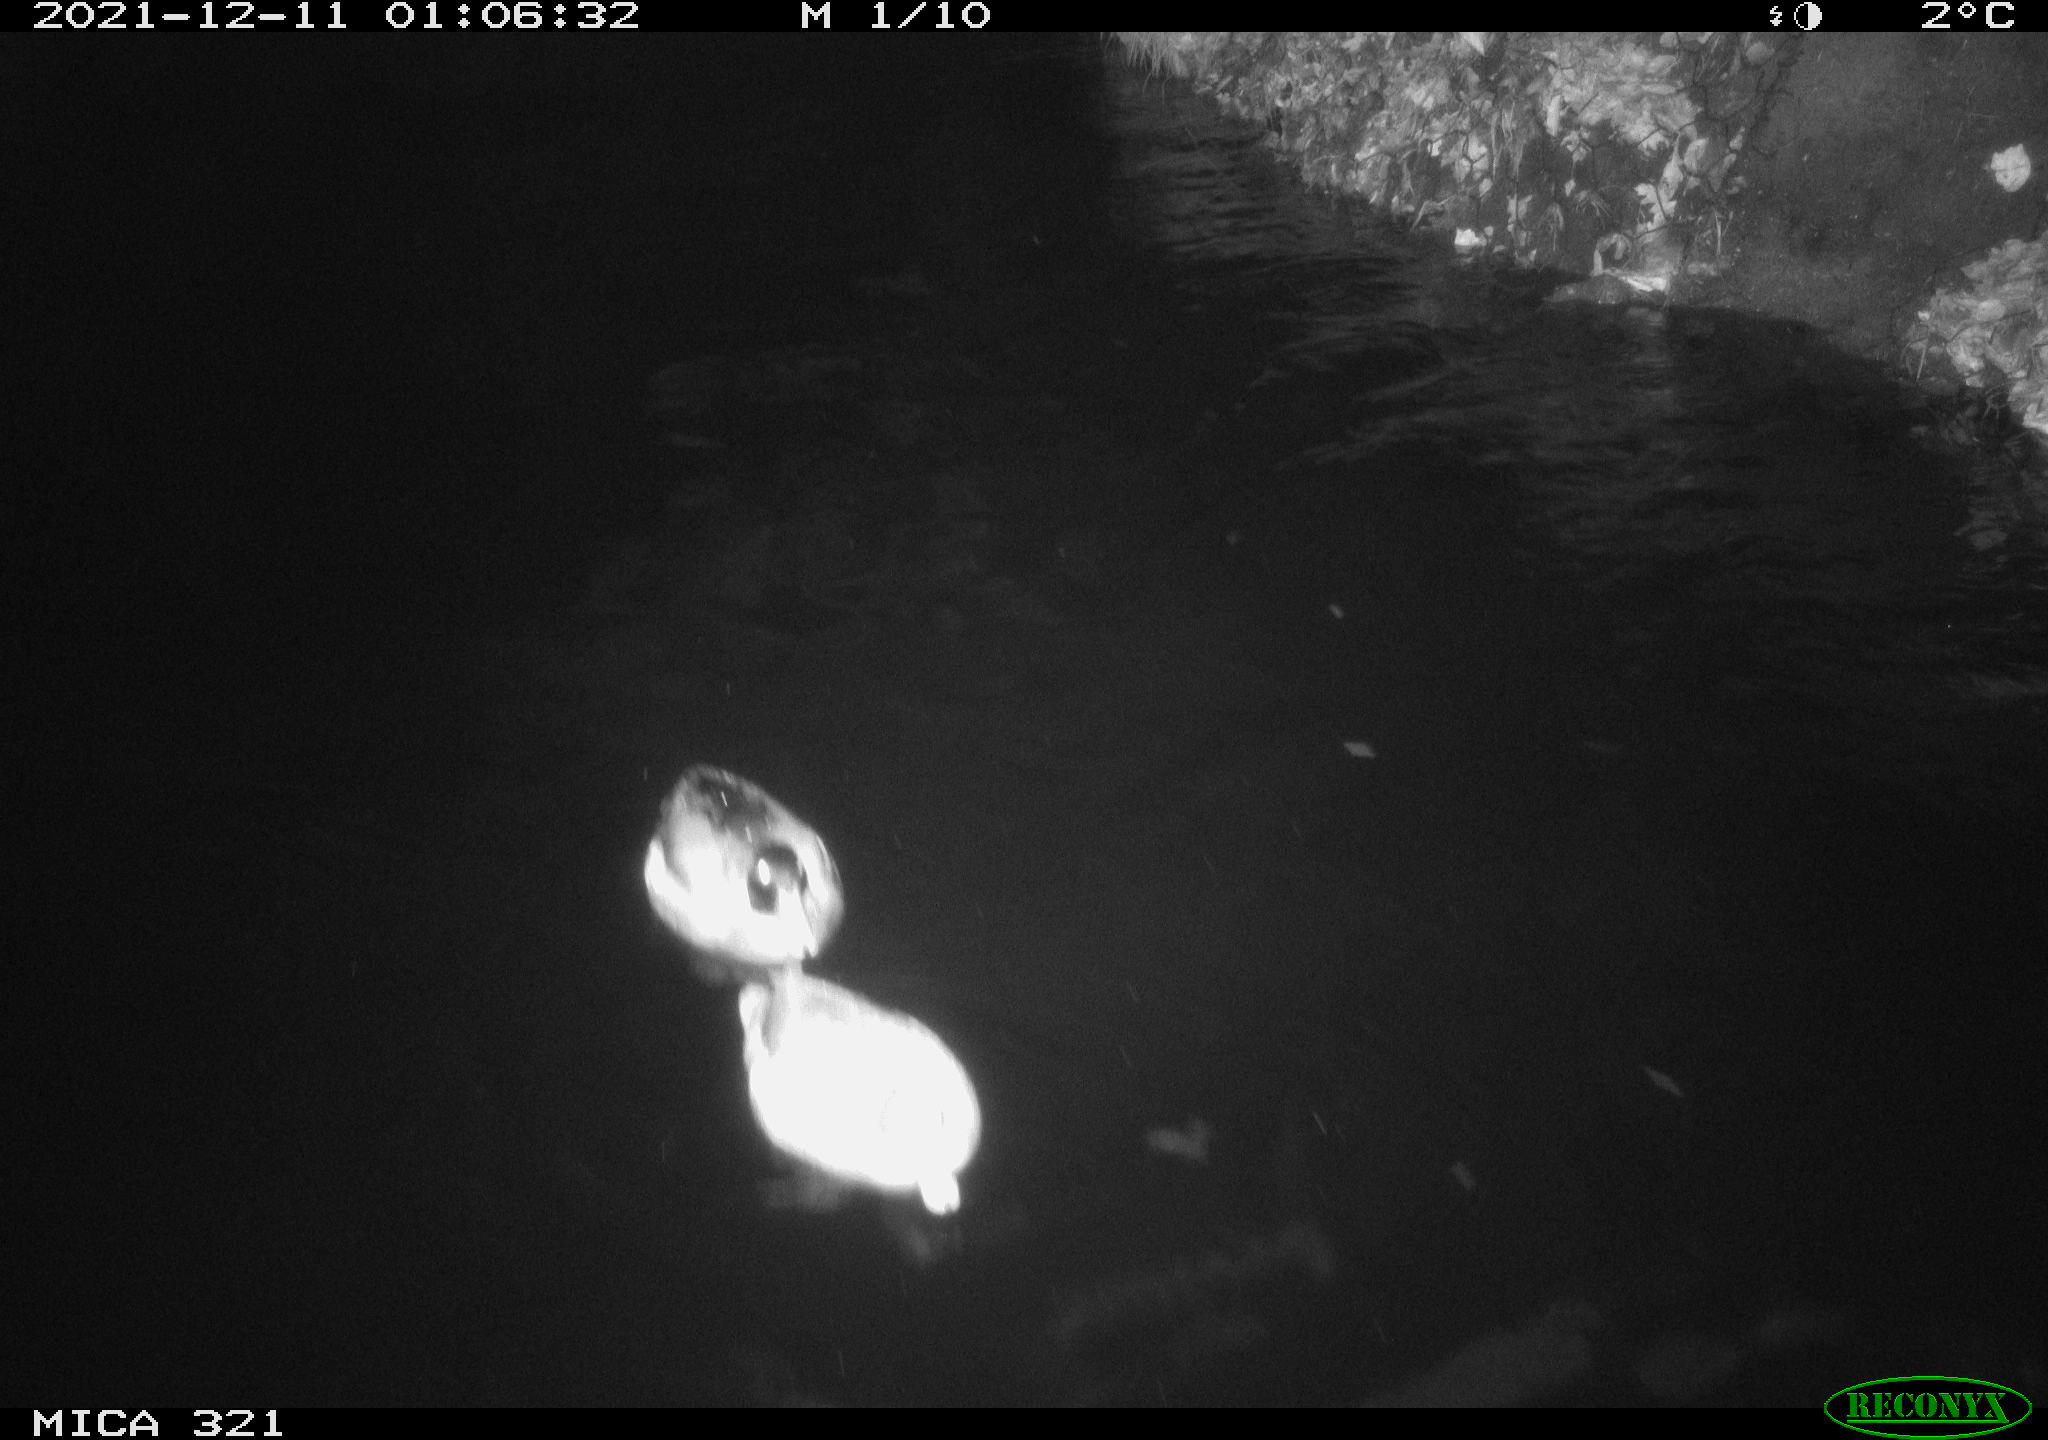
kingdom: Animalia
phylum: Chordata
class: Aves
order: Anseriformes
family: Anatidae
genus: Anas
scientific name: Anas
